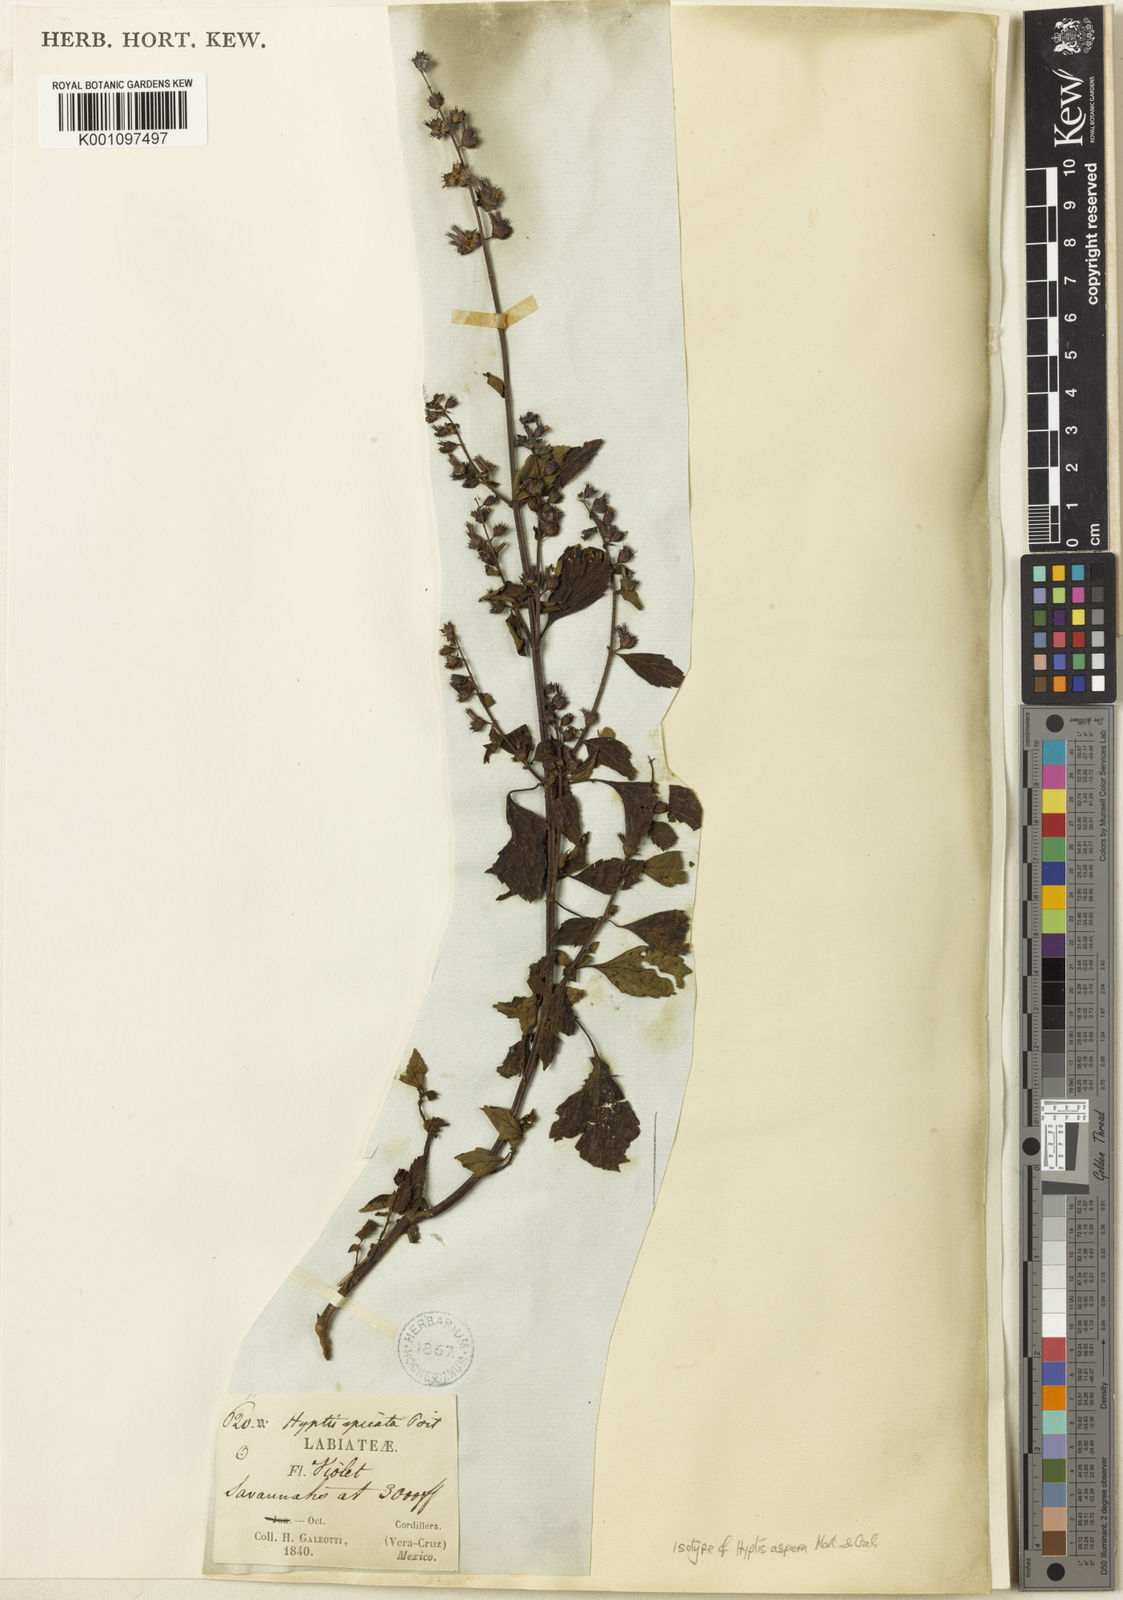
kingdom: Plantae
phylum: Tracheophyta
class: Magnoliopsida
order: Lamiales
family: Lamiaceae
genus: Cantinoa
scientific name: Cantinoa mutabilis
